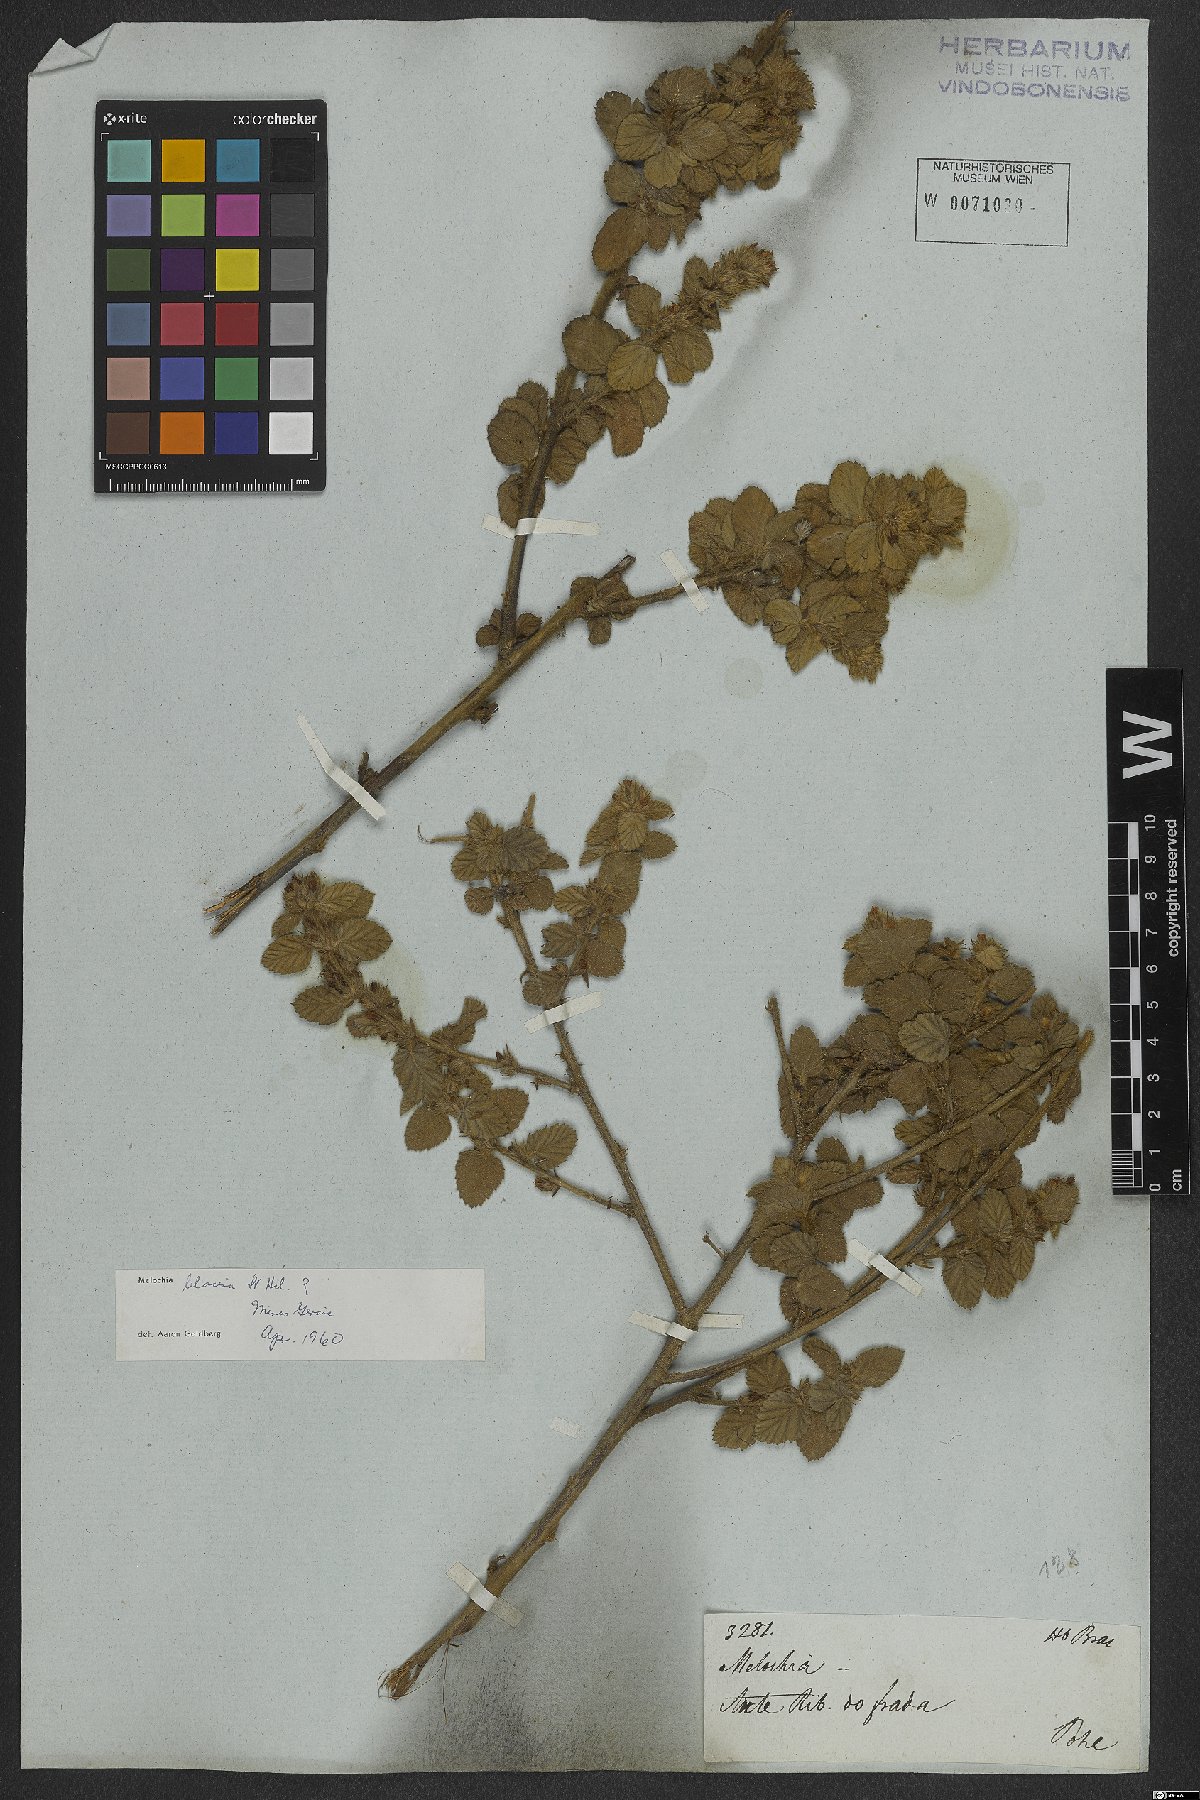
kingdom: Plantae
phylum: Tracheophyta
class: Magnoliopsida
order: Malvales
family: Malvaceae
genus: Melochia
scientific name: Melochia spicata
